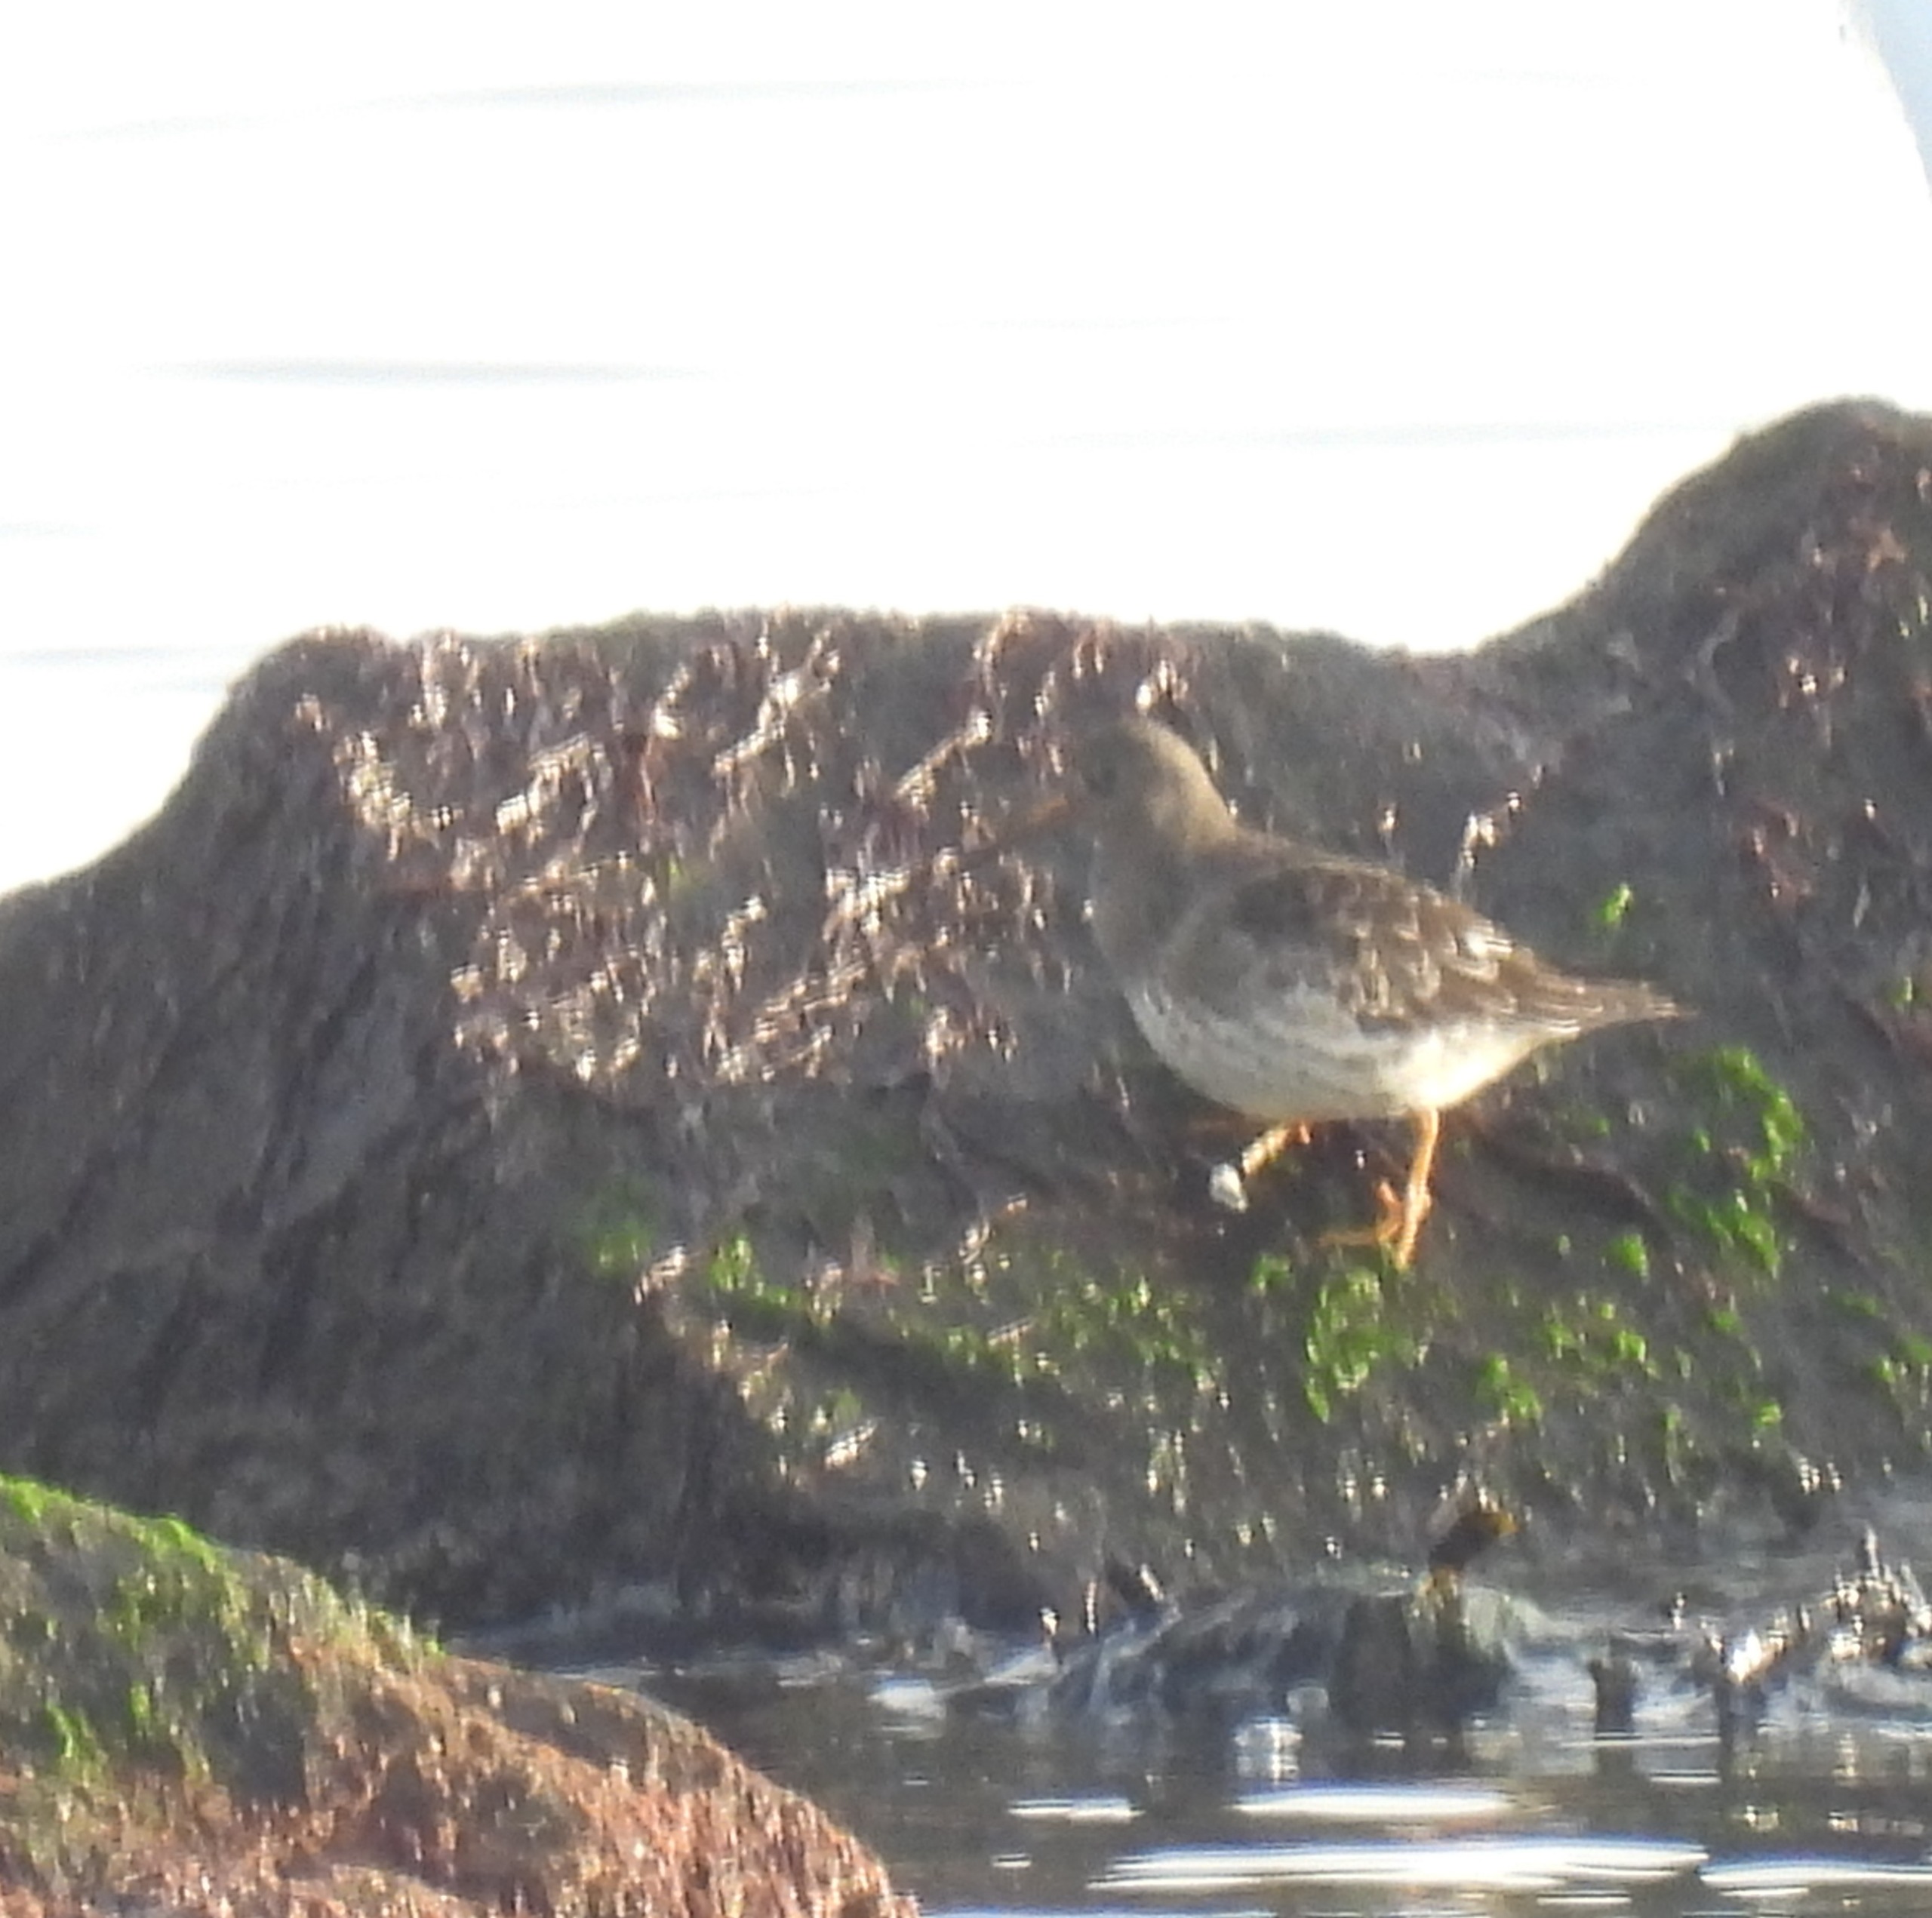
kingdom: Animalia
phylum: Chordata
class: Aves
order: Charadriiformes
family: Scolopacidae
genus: Calidris
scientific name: Calidris maritima
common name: Sortgrå ryle
